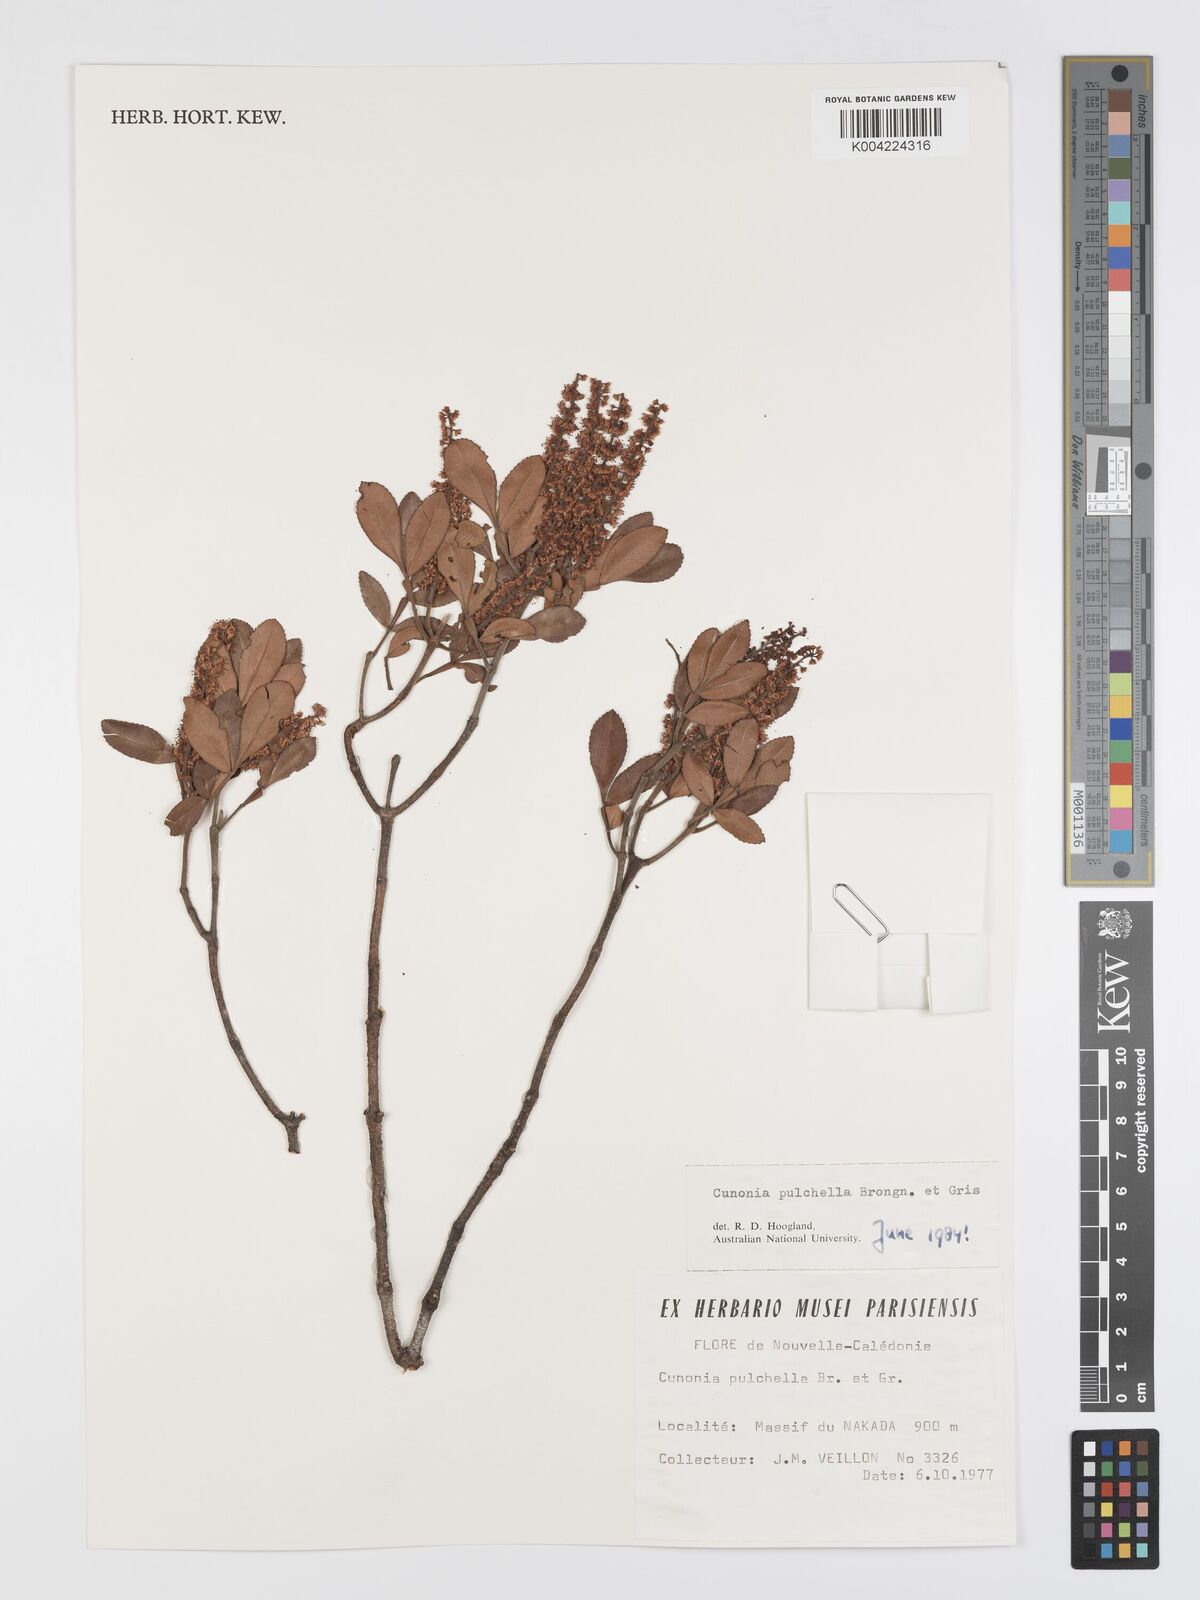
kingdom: Plantae
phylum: Tracheophyta
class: Magnoliopsida
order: Oxalidales
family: Cunoniaceae
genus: Cunonia
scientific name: Cunonia pulchella
